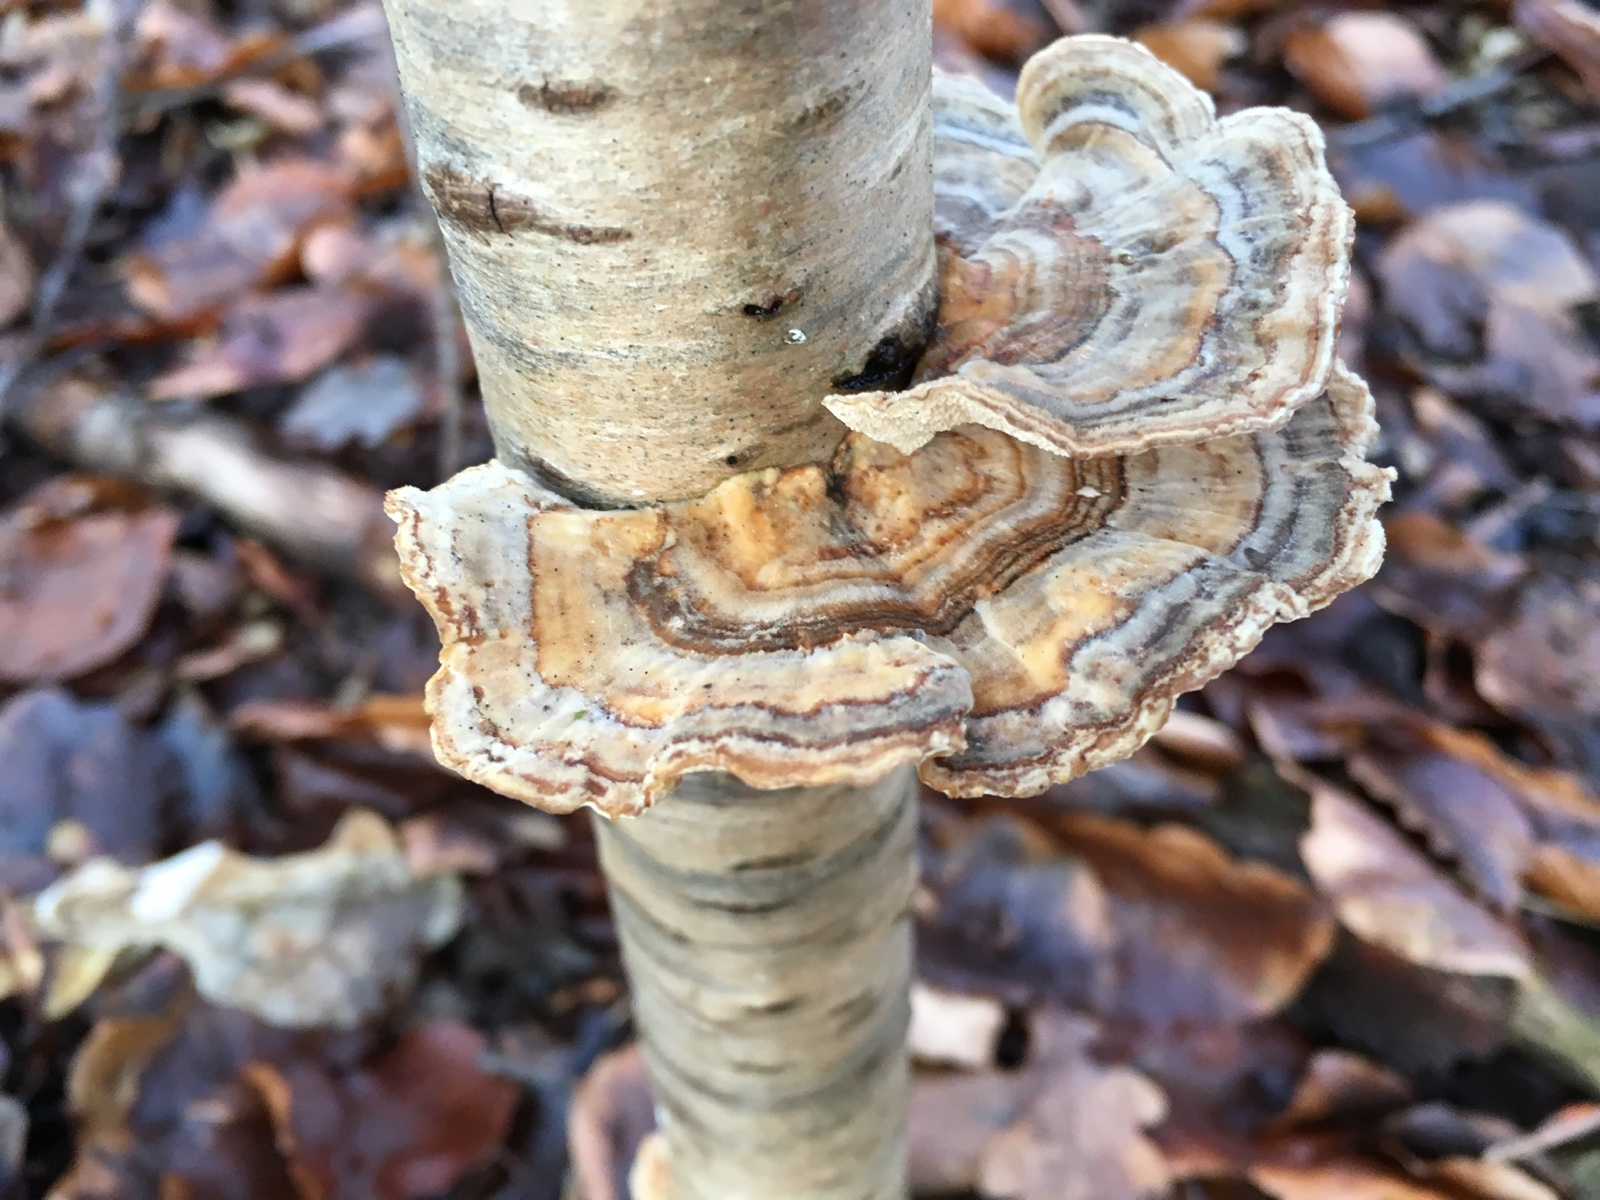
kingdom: Fungi
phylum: Basidiomycota
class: Agaricomycetes
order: Polyporales
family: Polyporaceae
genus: Trametes
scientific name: Trametes versicolor
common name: broget læderporesvamp
